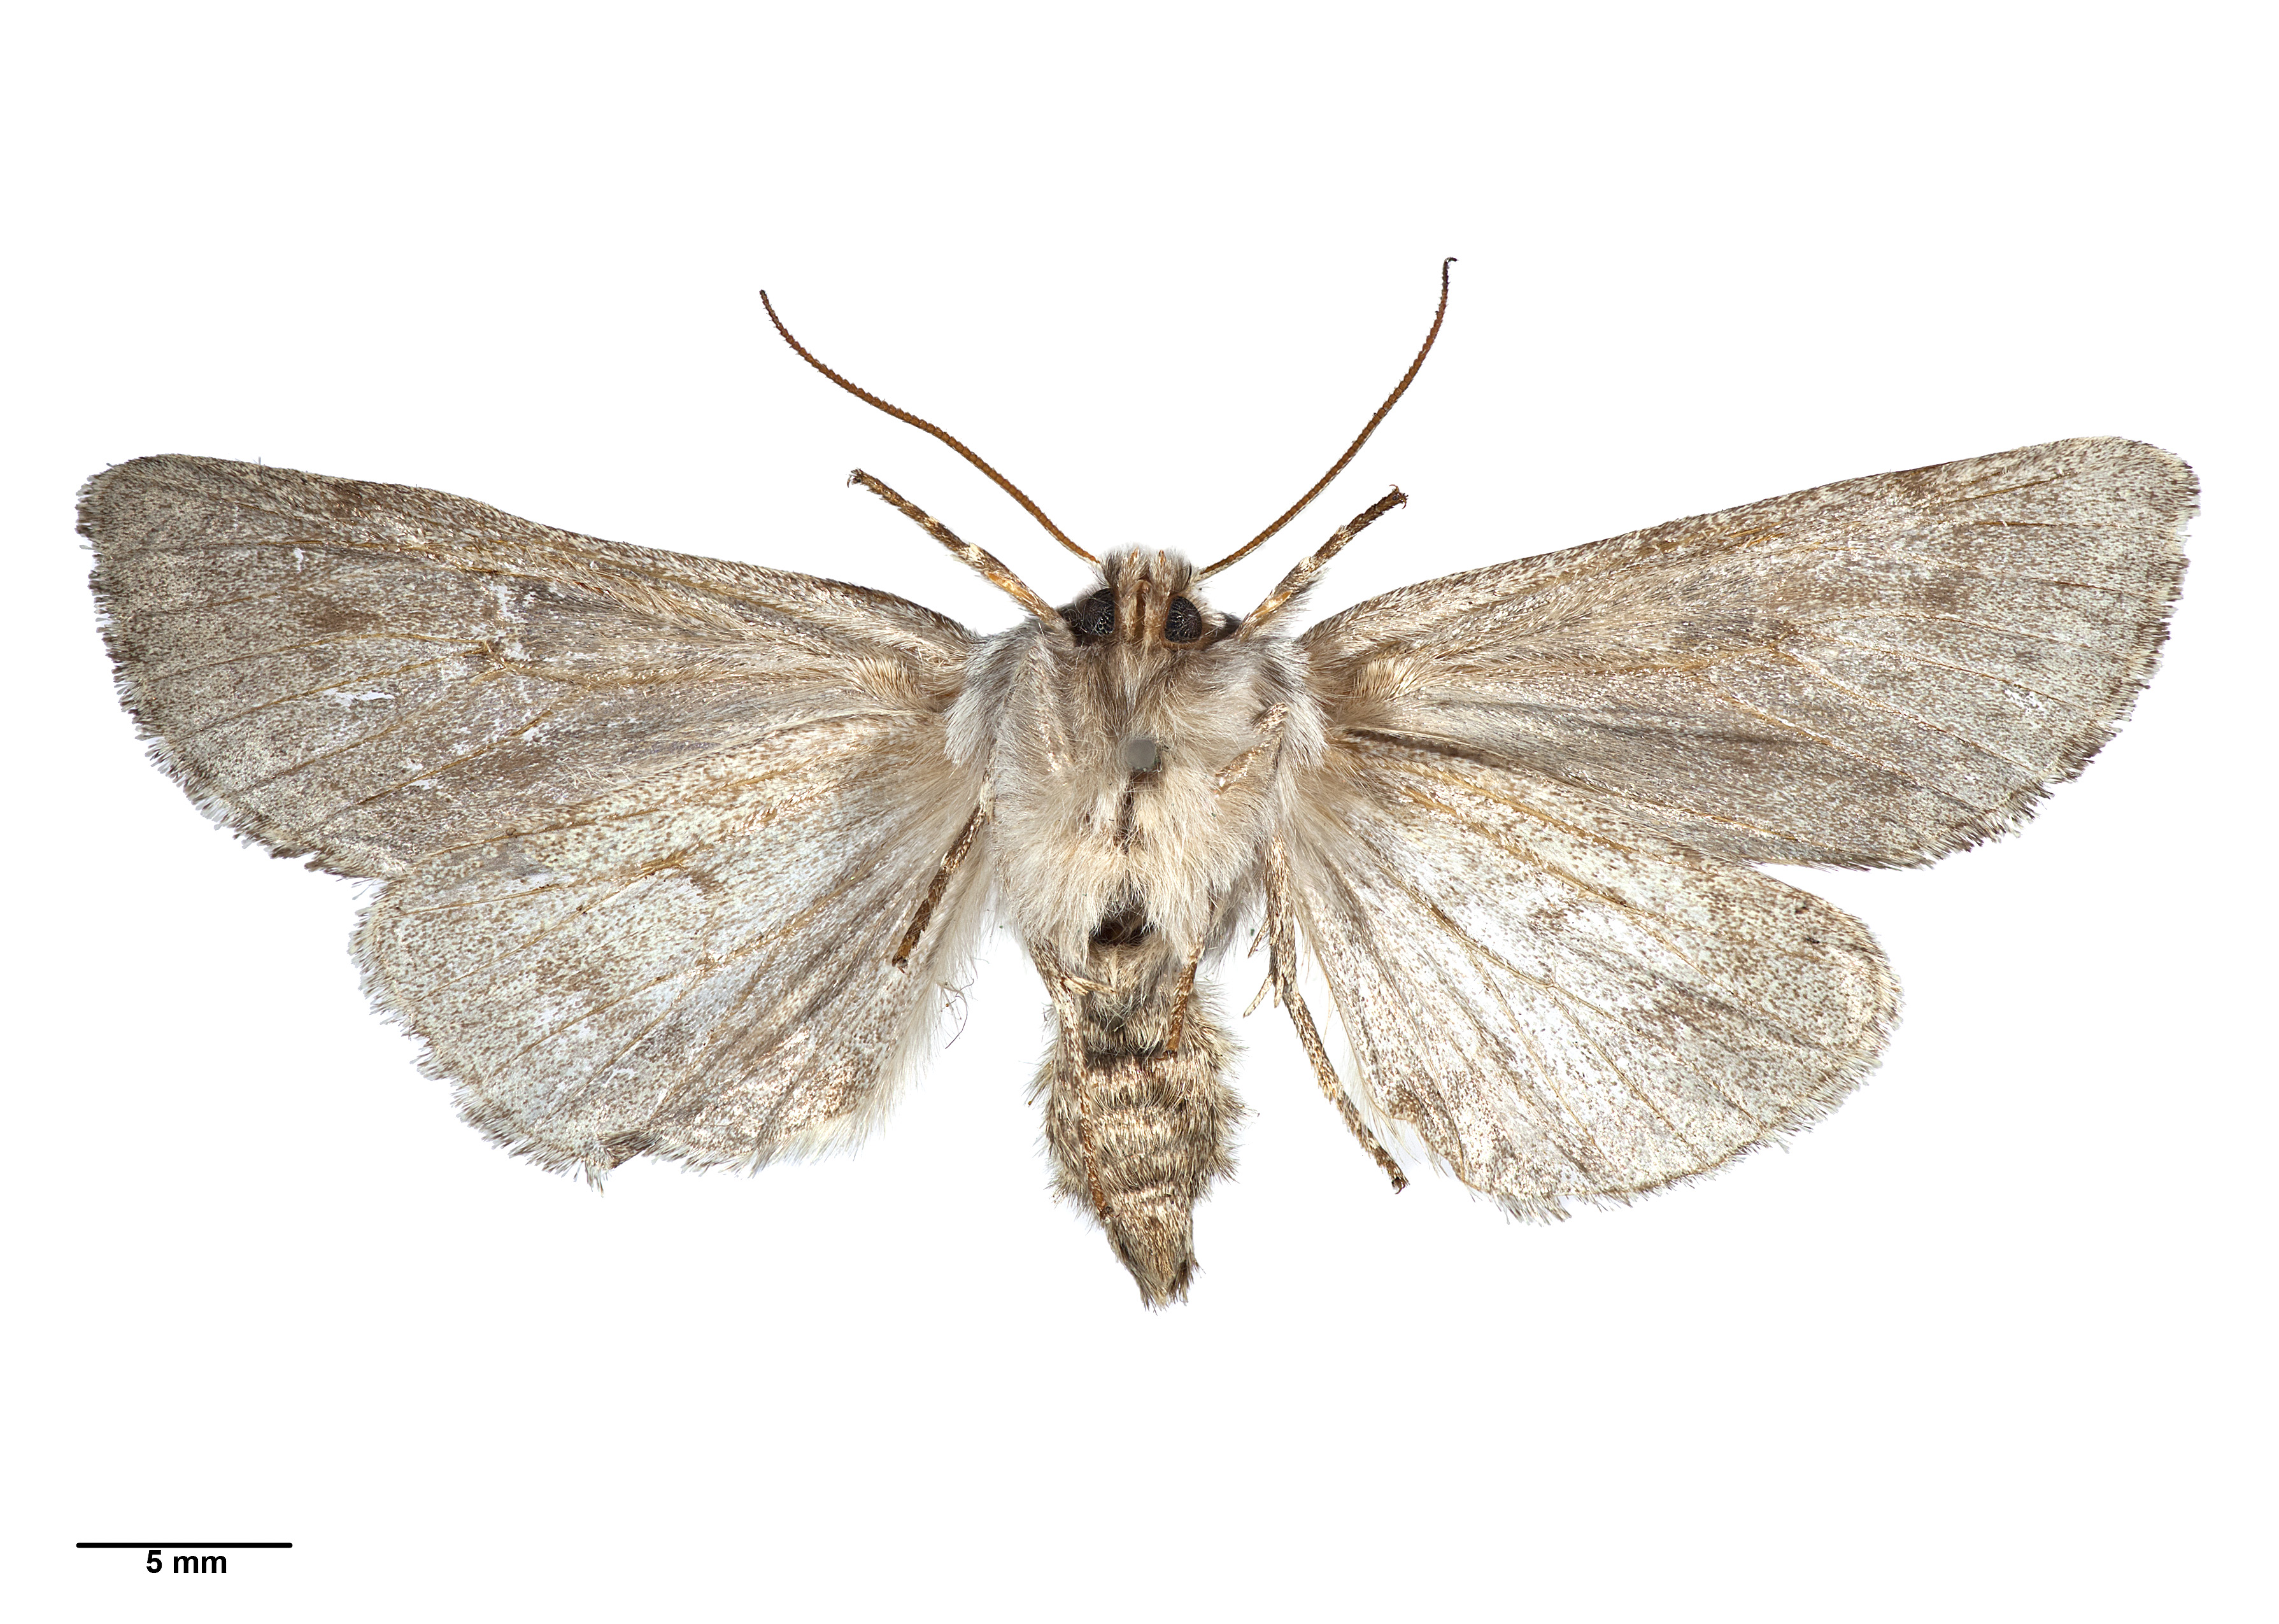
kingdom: Animalia
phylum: Arthropoda
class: Insecta
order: Lepidoptera
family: Noctuidae
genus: Ichneutica
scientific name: Ichneutica
